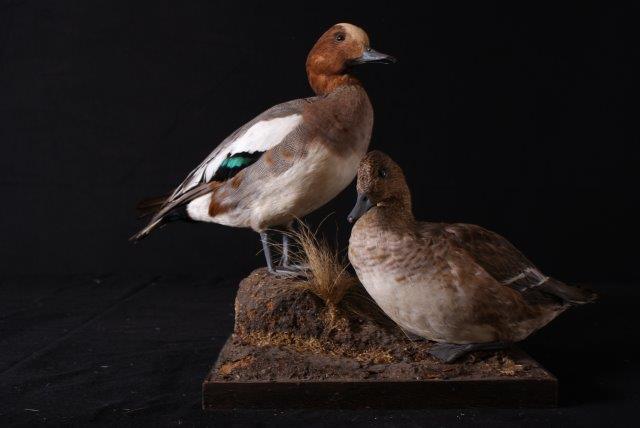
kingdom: Animalia
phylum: Chordata
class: Aves
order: Anseriformes
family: Anatidae
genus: Mareca
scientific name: Mareca penelope
